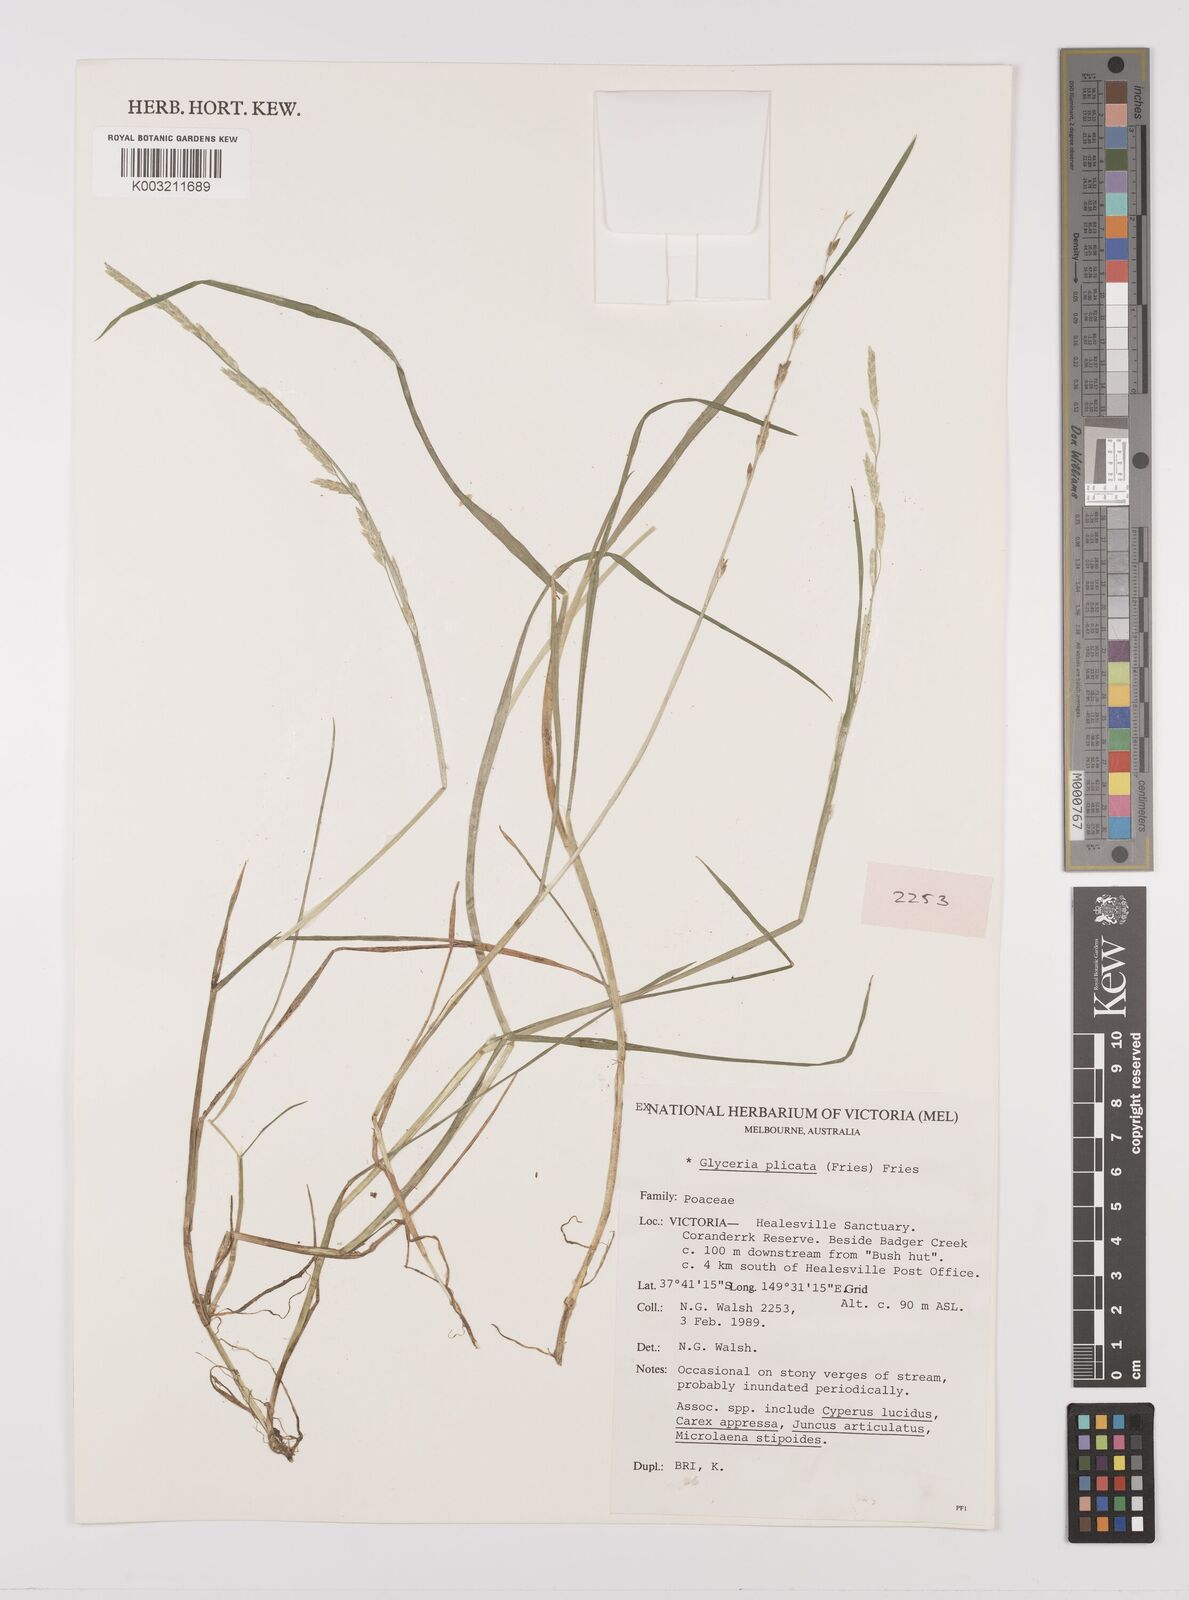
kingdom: Plantae
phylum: Tracheophyta
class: Liliopsida
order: Poales
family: Poaceae
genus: Glyceria
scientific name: Glyceria notata
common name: Plicate sweet-grass
